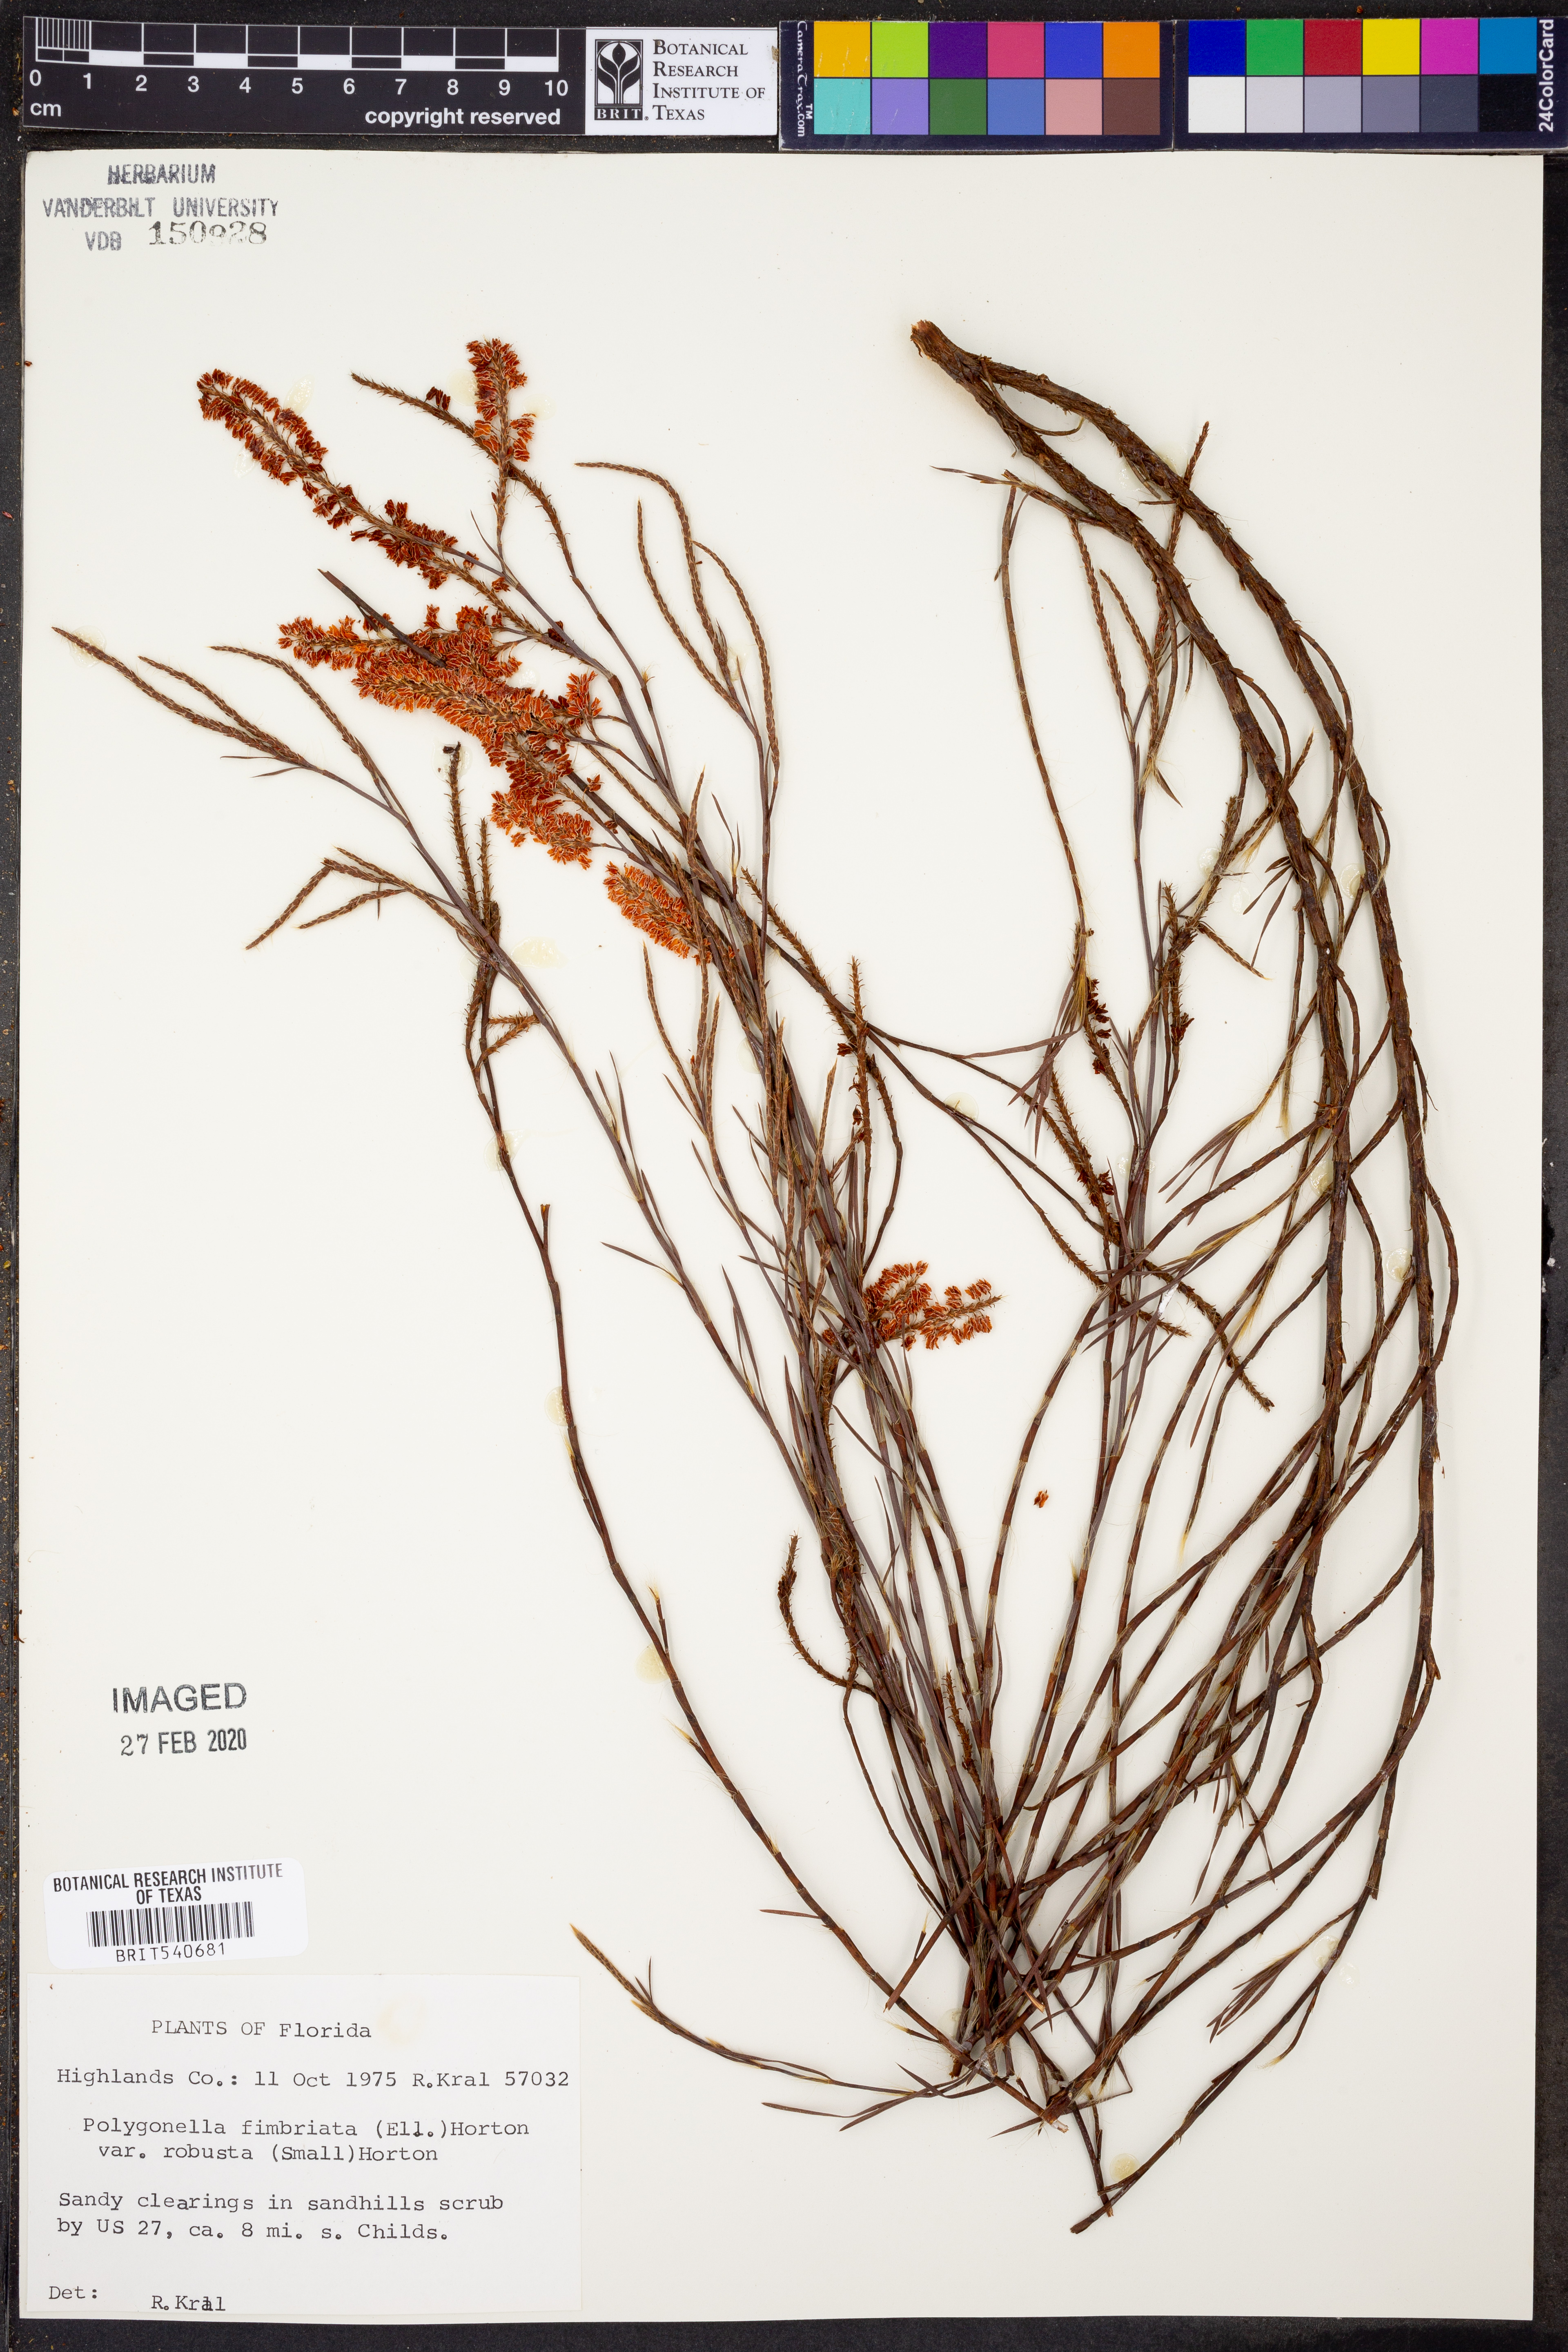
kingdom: Plantae
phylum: Tracheophyta
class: Magnoliopsida
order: Caryophyllales
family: Polygonaceae
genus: Polygonella
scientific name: Polygonella robusta
